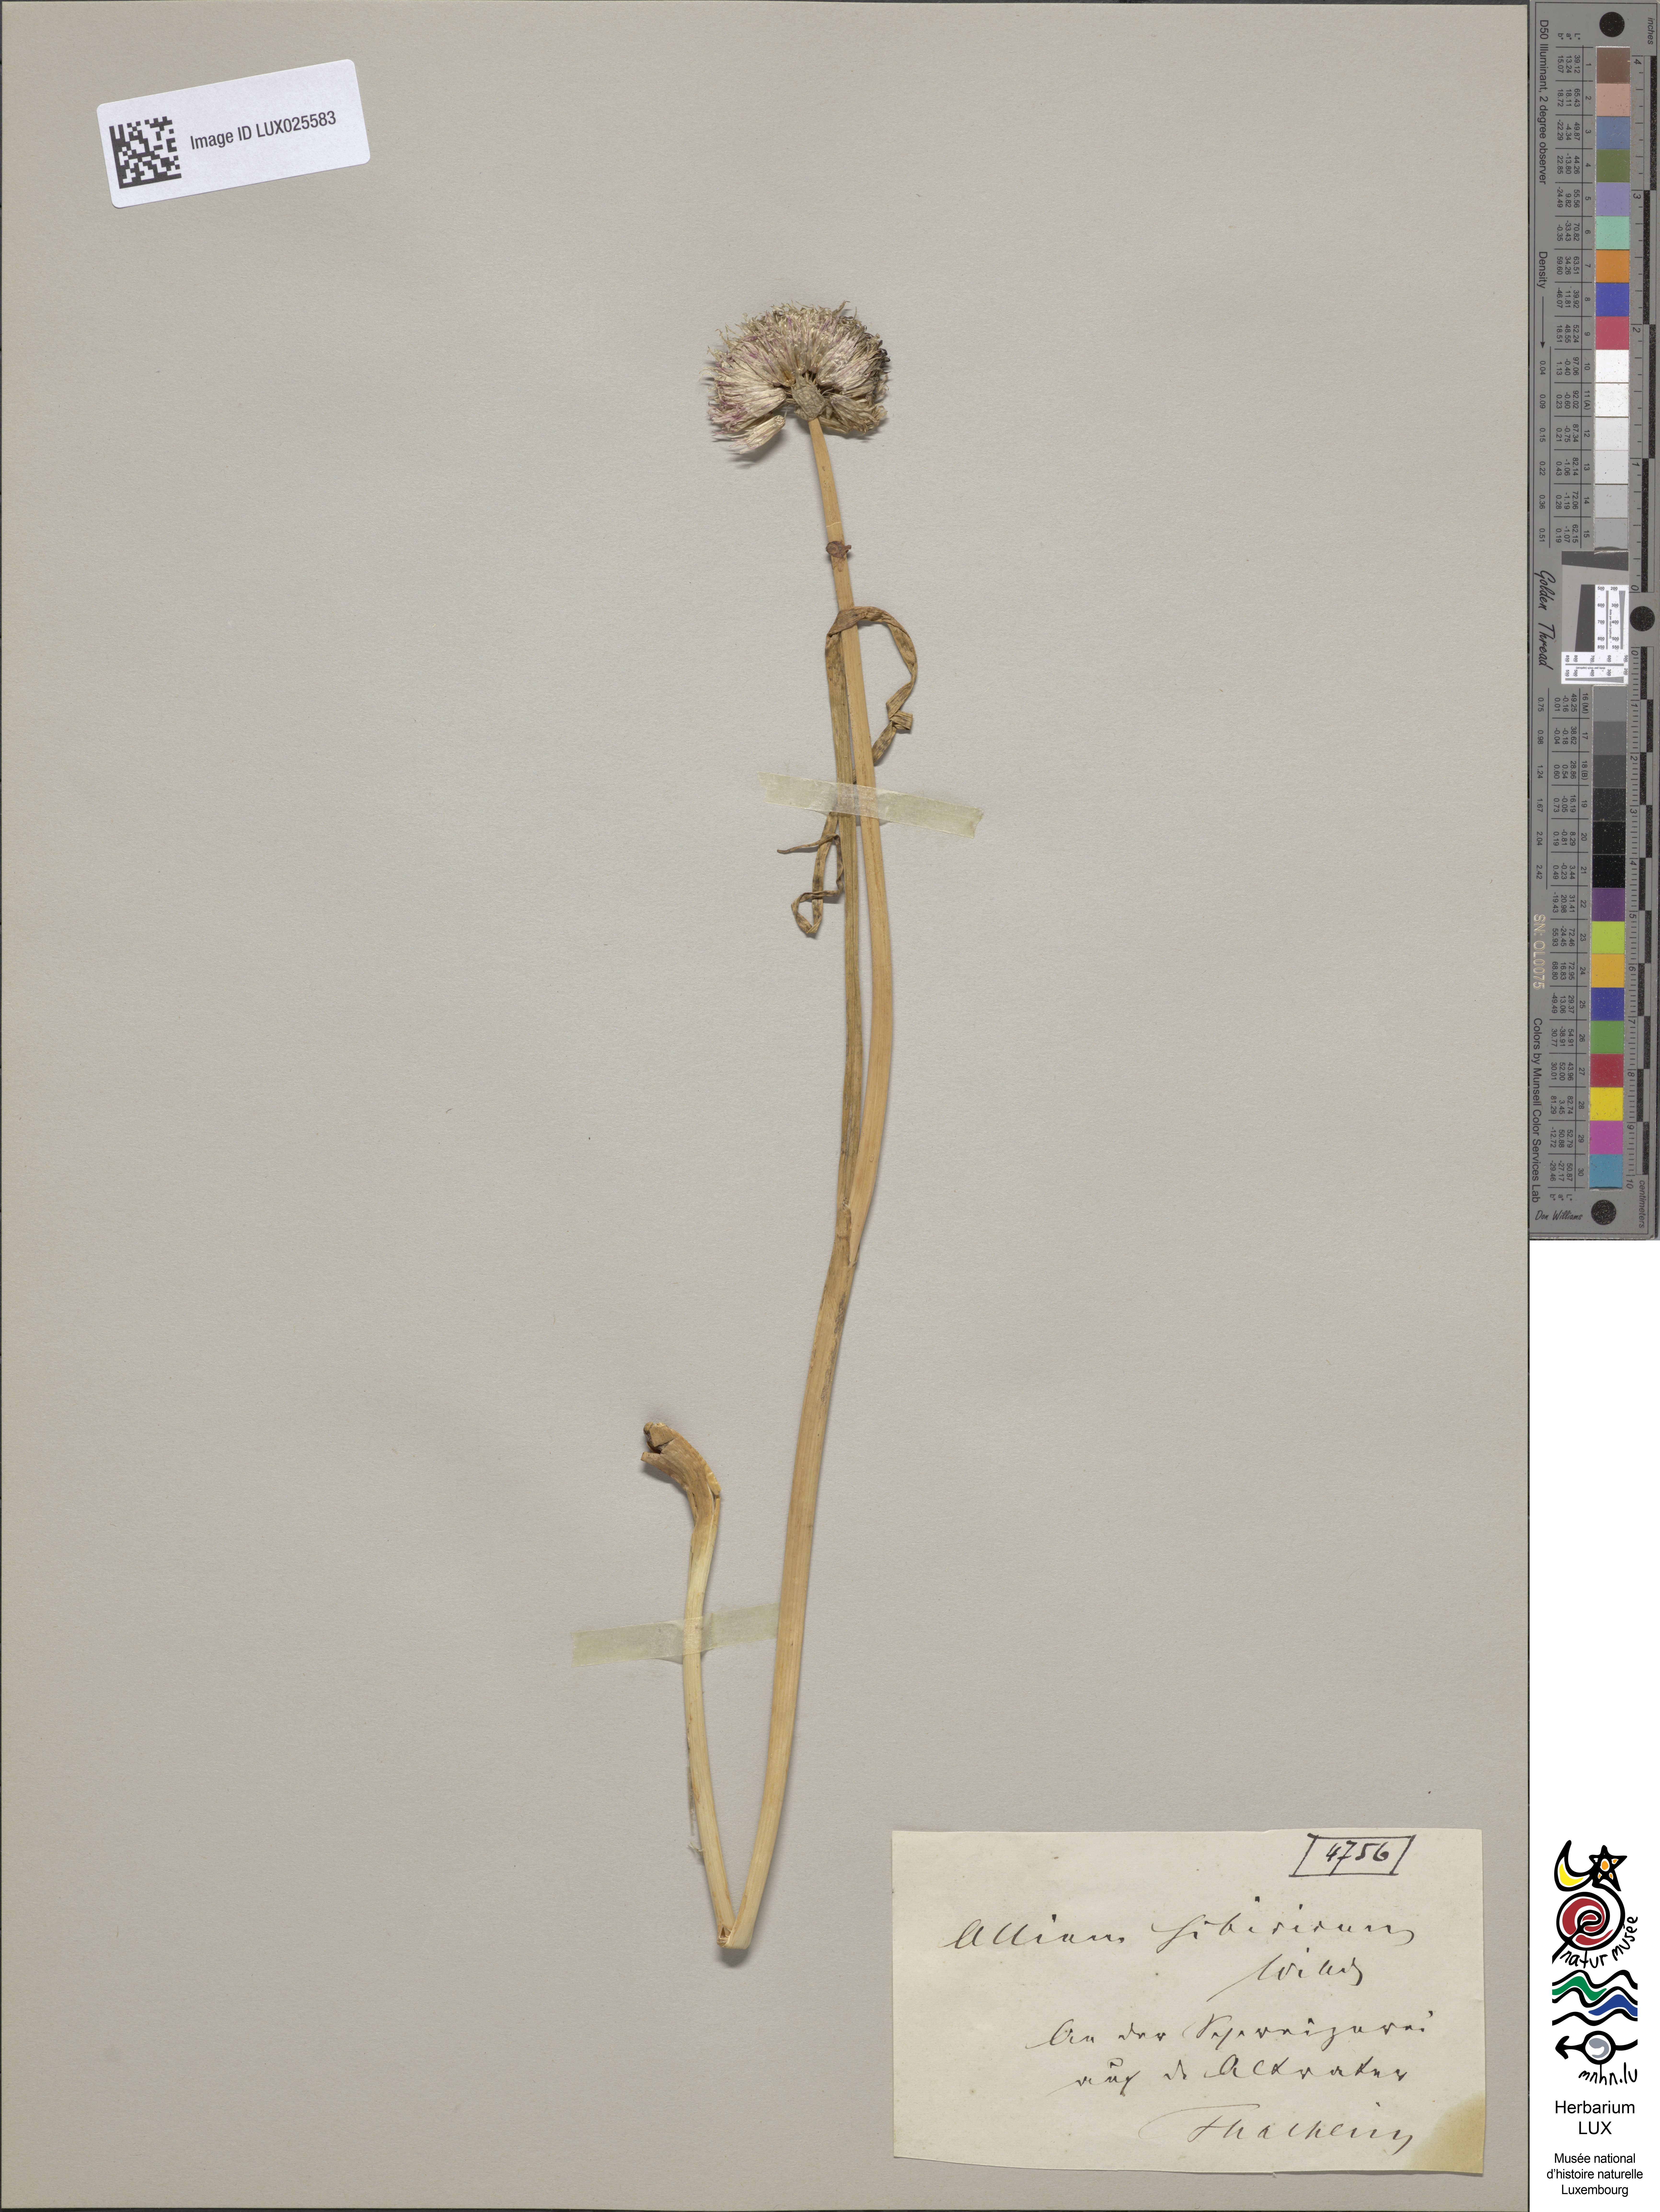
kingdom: Plantae
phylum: Tracheophyta
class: Liliopsida
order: Asparagales
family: Amaryllidaceae
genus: Allium
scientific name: Allium schoenoprasum
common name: Chives
